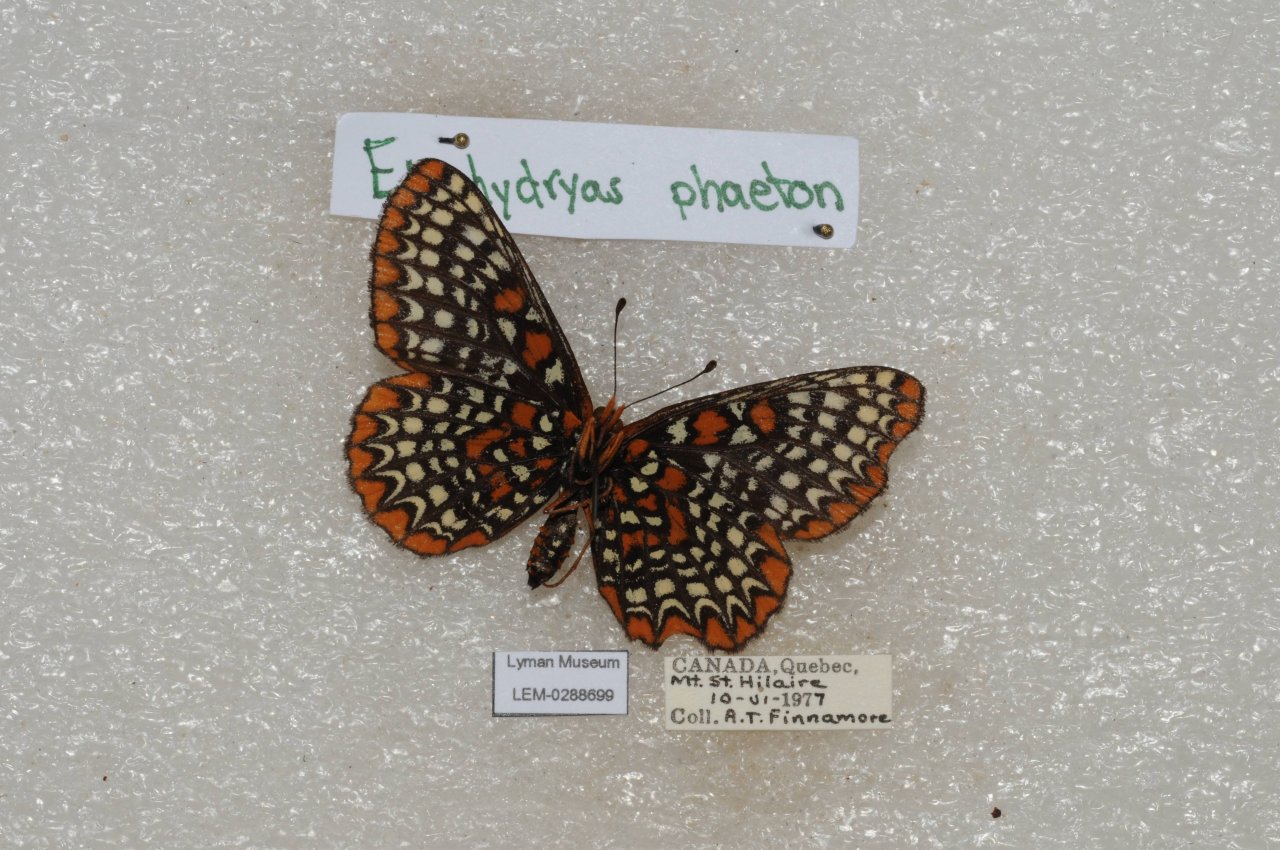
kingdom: Animalia
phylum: Arthropoda
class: Insecta
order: Lepidoptera
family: Nymphalidae
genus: Euphydryas
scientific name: Euphydryas phaeton
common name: Baltimore Checkerspot
